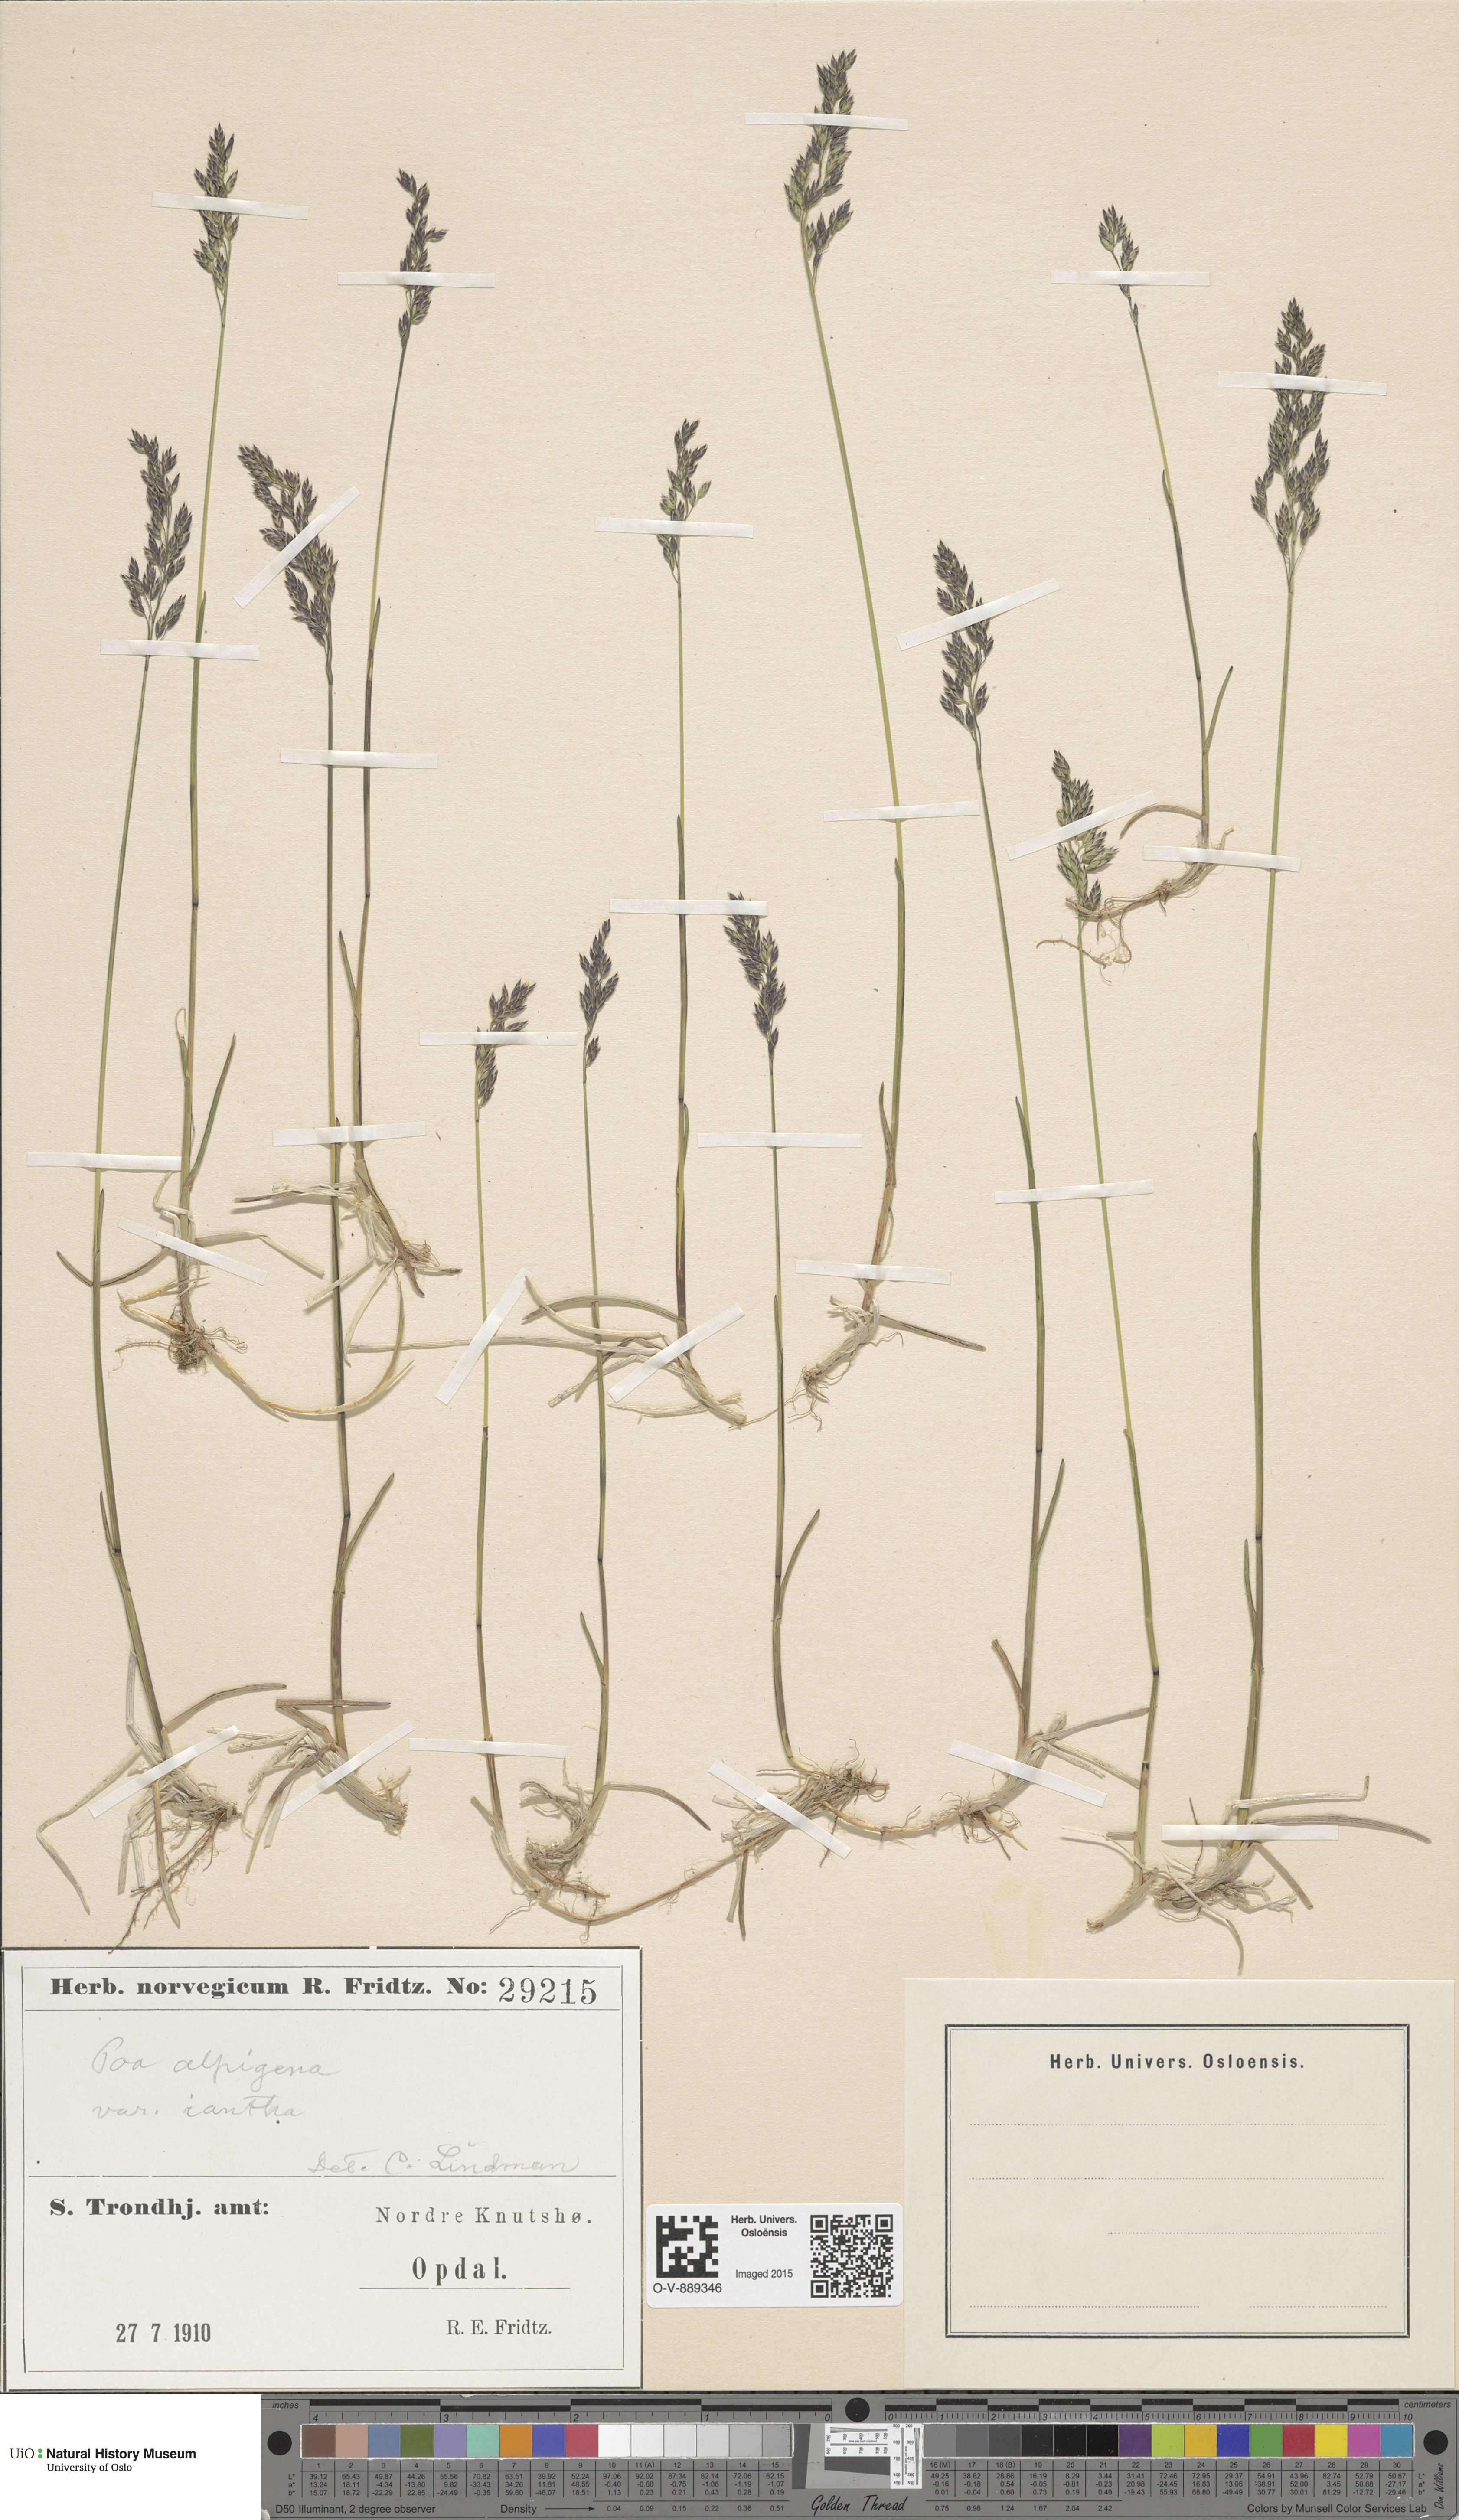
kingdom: Plantae
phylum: Tracheophyta
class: Liliopsida
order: Poales
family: Poaceae
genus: Poa
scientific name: Poa alpigena
